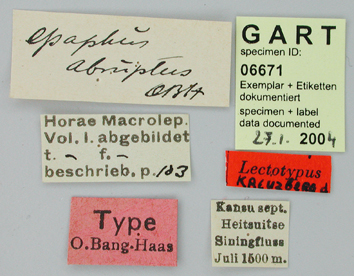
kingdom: Animalia
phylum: Arthropoda
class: Insecta
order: Lepidoptera
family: Papilionidae
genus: Parnassius
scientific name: Parnassius epaphus
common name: Common red apollo
